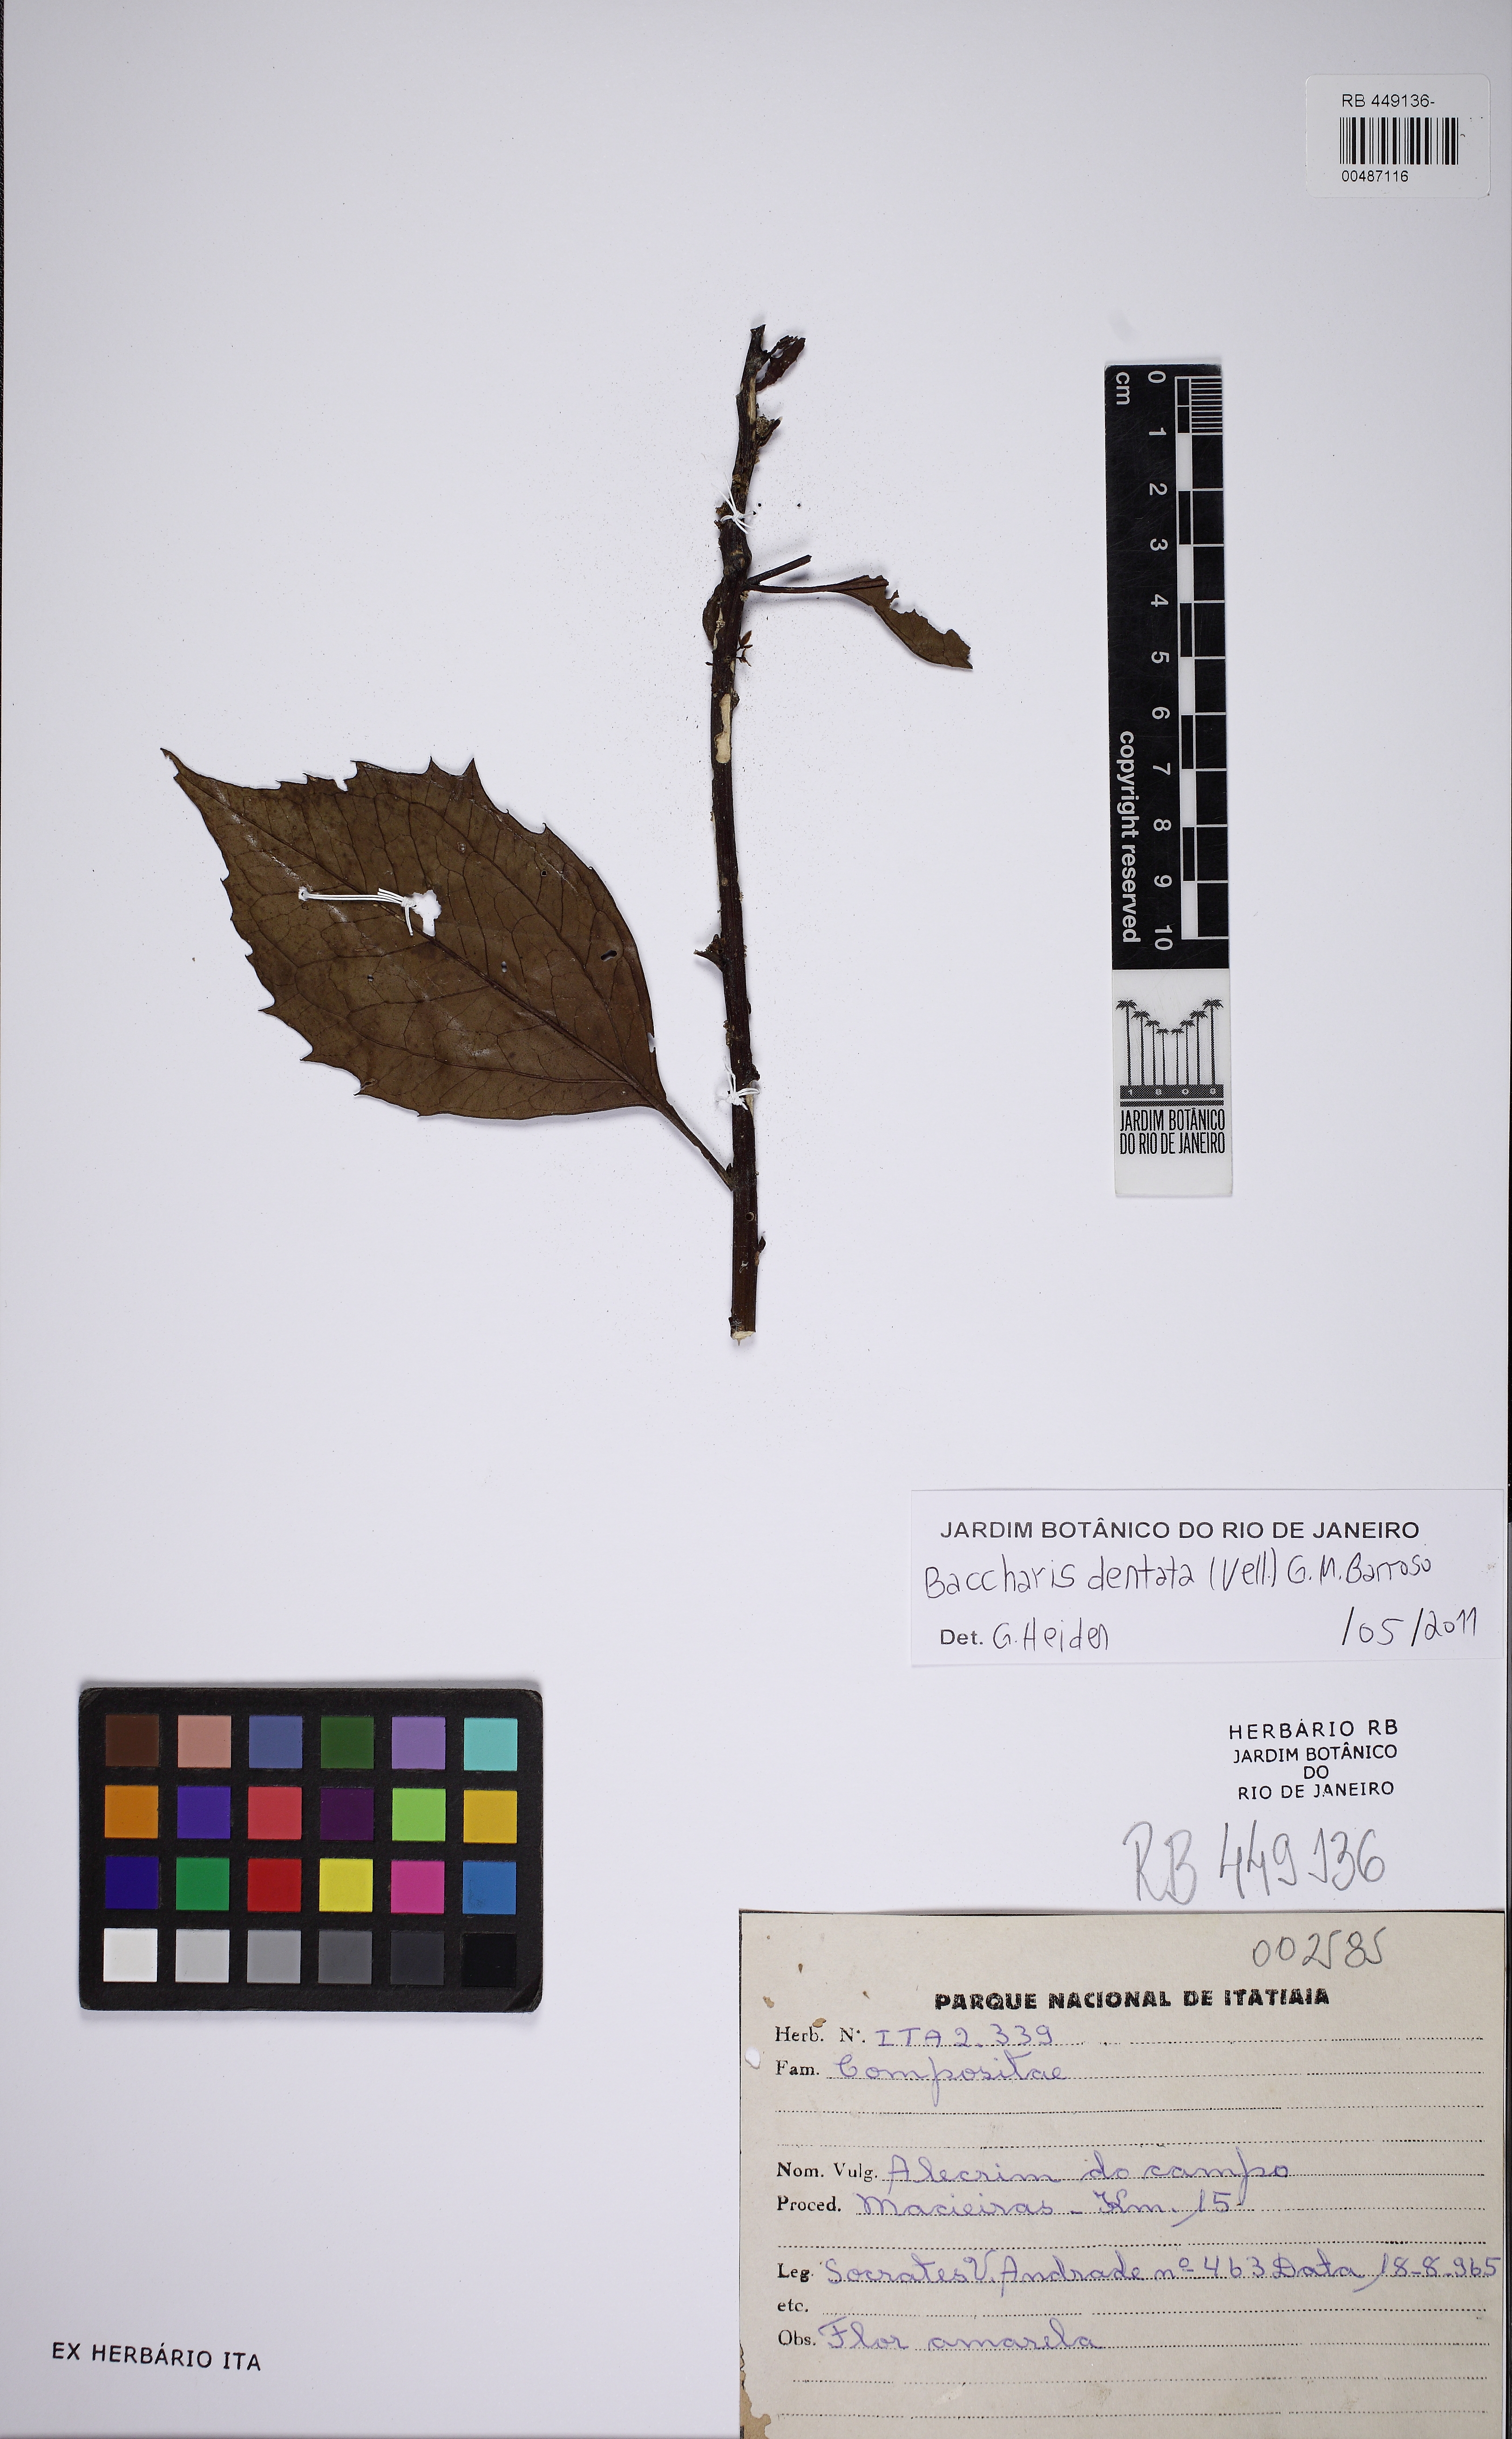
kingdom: Plantae
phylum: Tracheophyta
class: Magnoliopsida
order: Asterales
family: Asteraceae
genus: Baccharis
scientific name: Baccharis dentata
